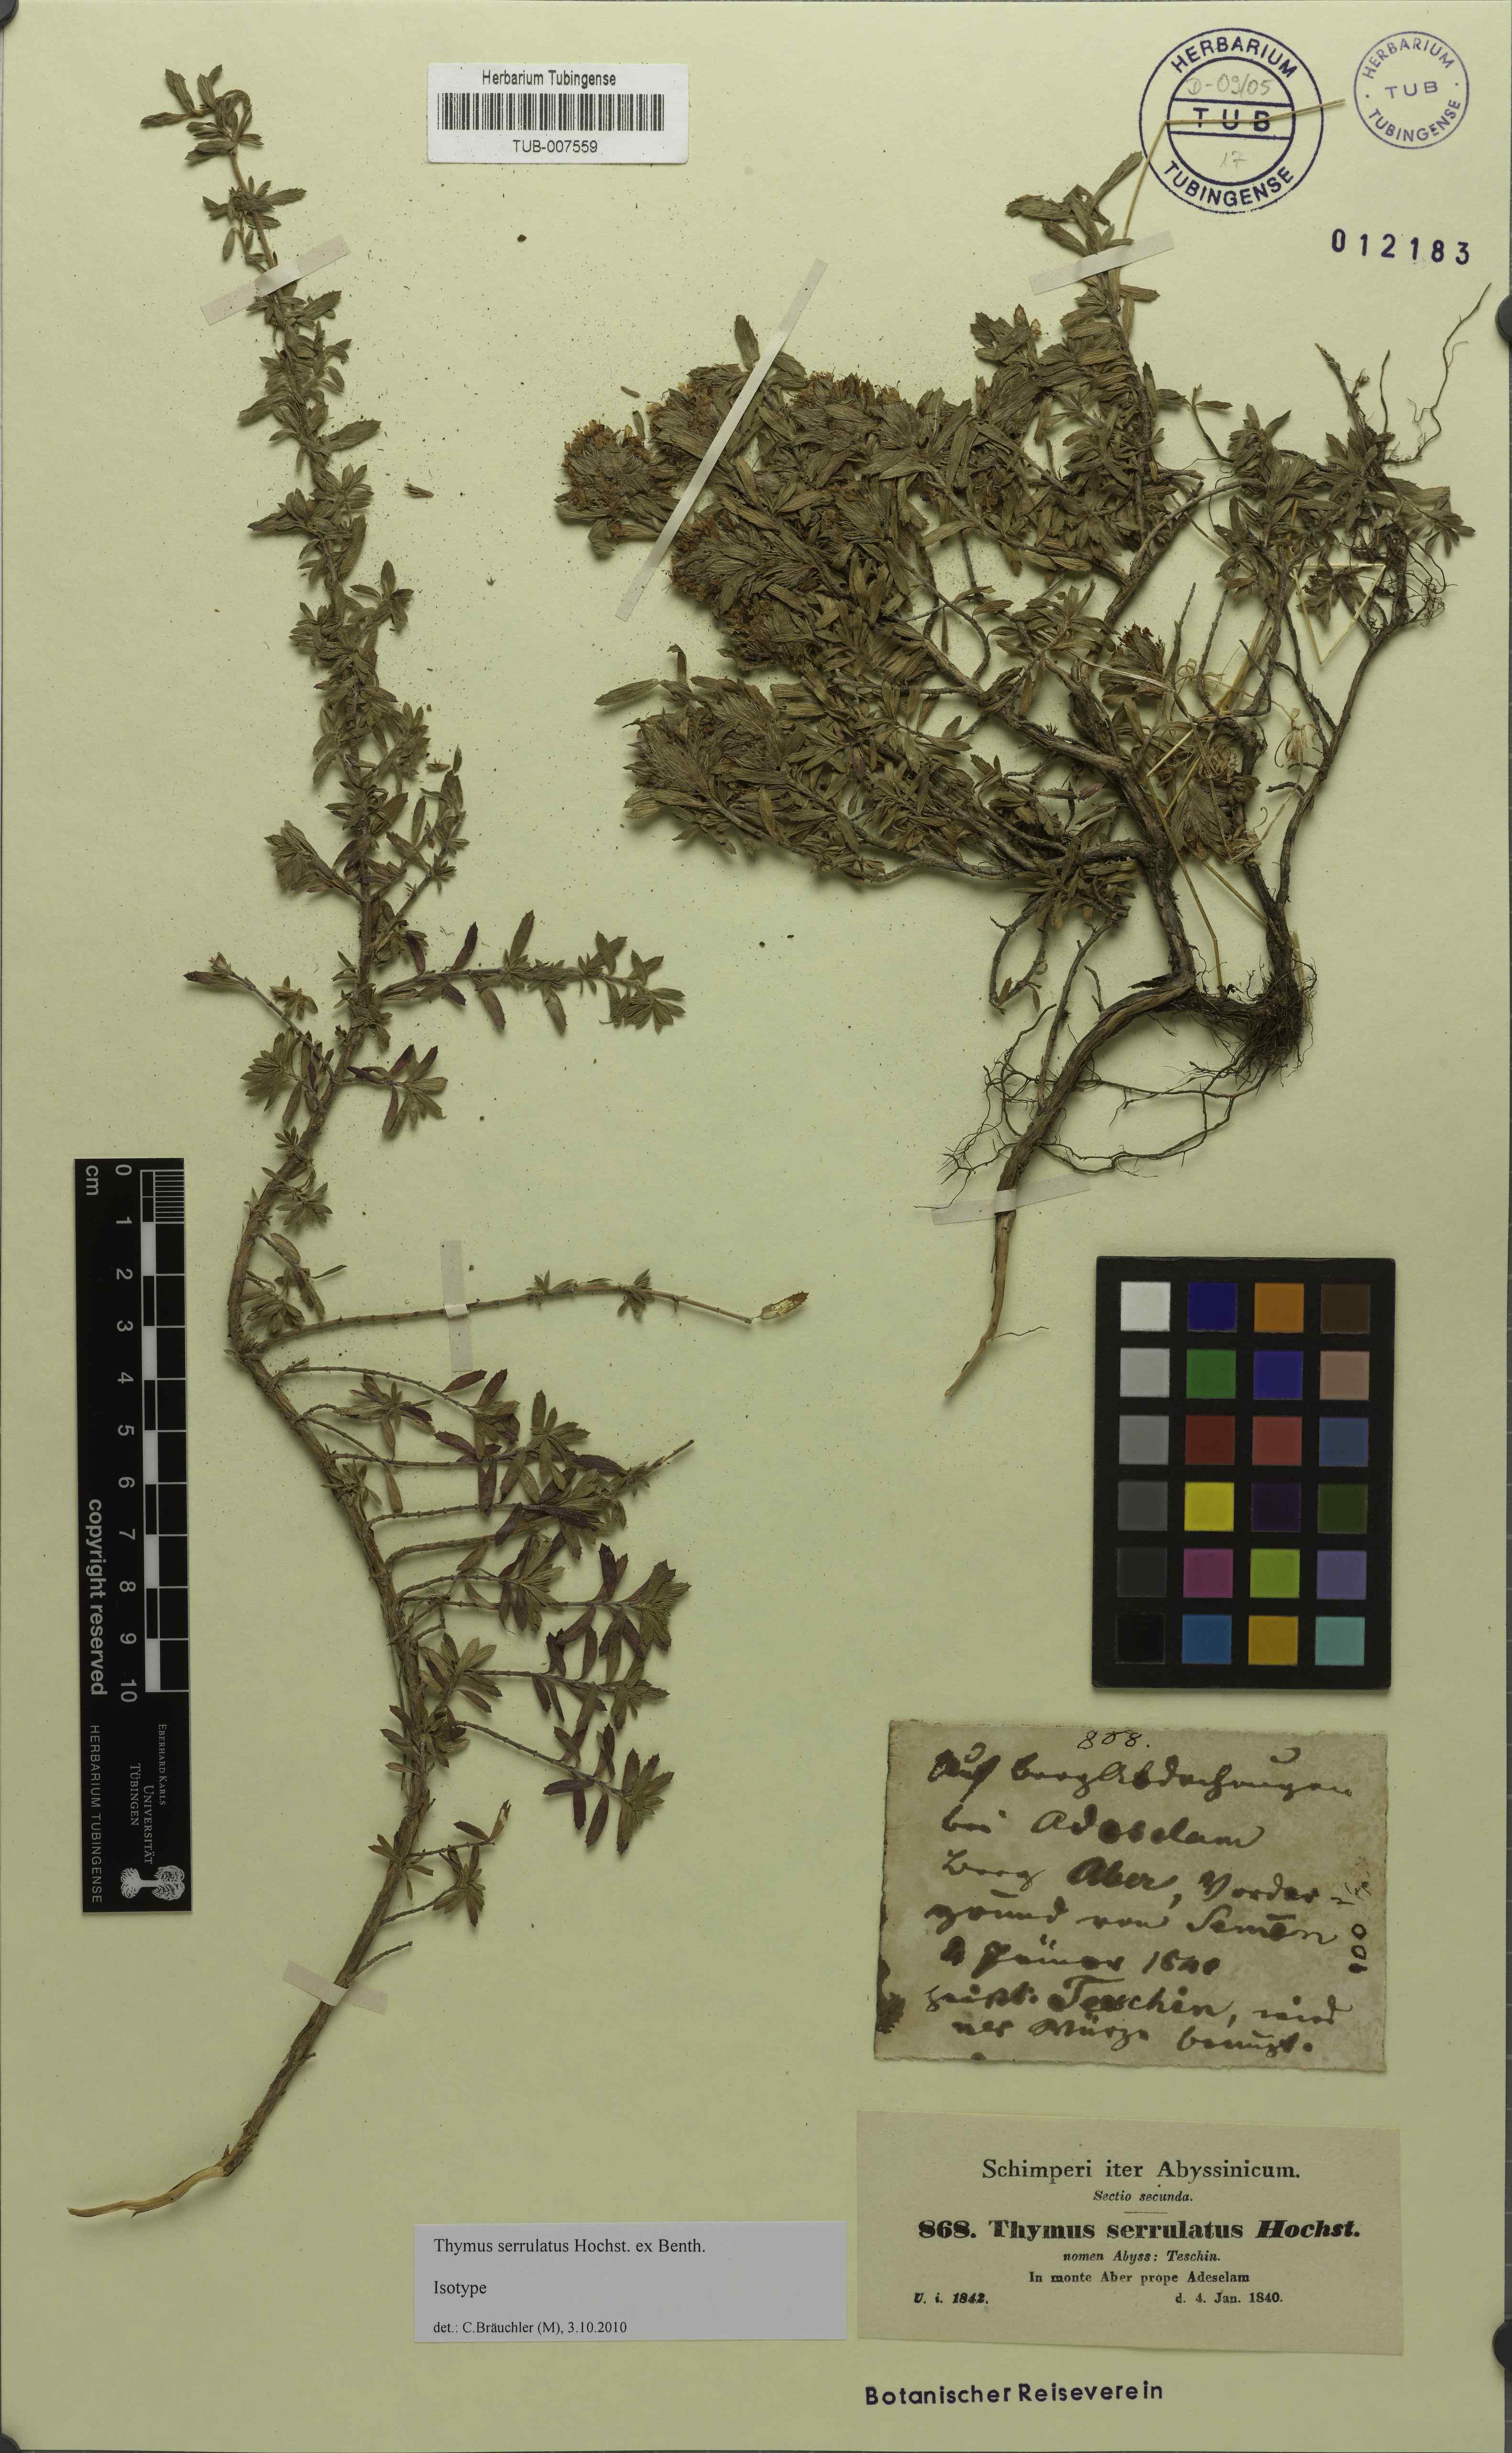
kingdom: Plantae
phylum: Tracheophyta
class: Magnoliopsida
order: Lamiales
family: Lamiaceae
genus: Thymus
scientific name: Thymus serrulatus
